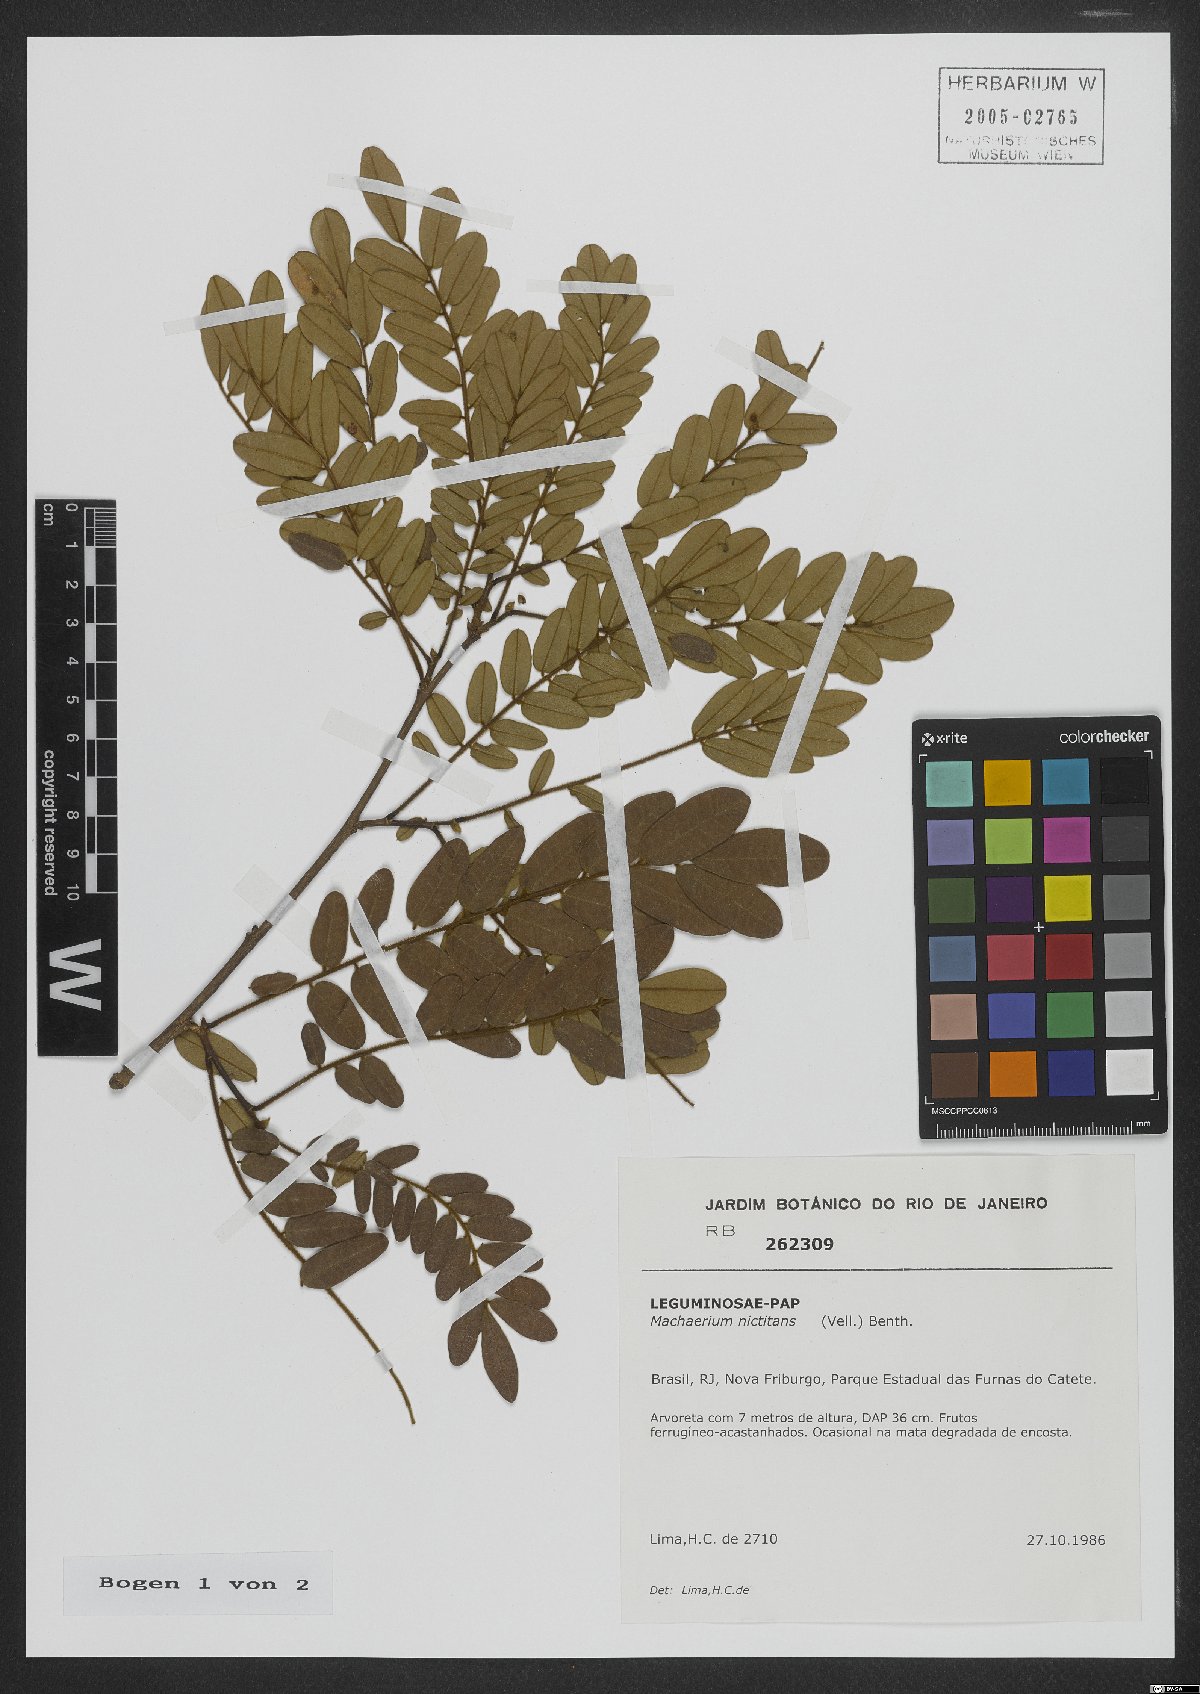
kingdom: Plantae
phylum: Tracheophyta
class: Magnoliopsida
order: Fabales
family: Fabaceae
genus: Machaerium
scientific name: Machaerium nyctitans
